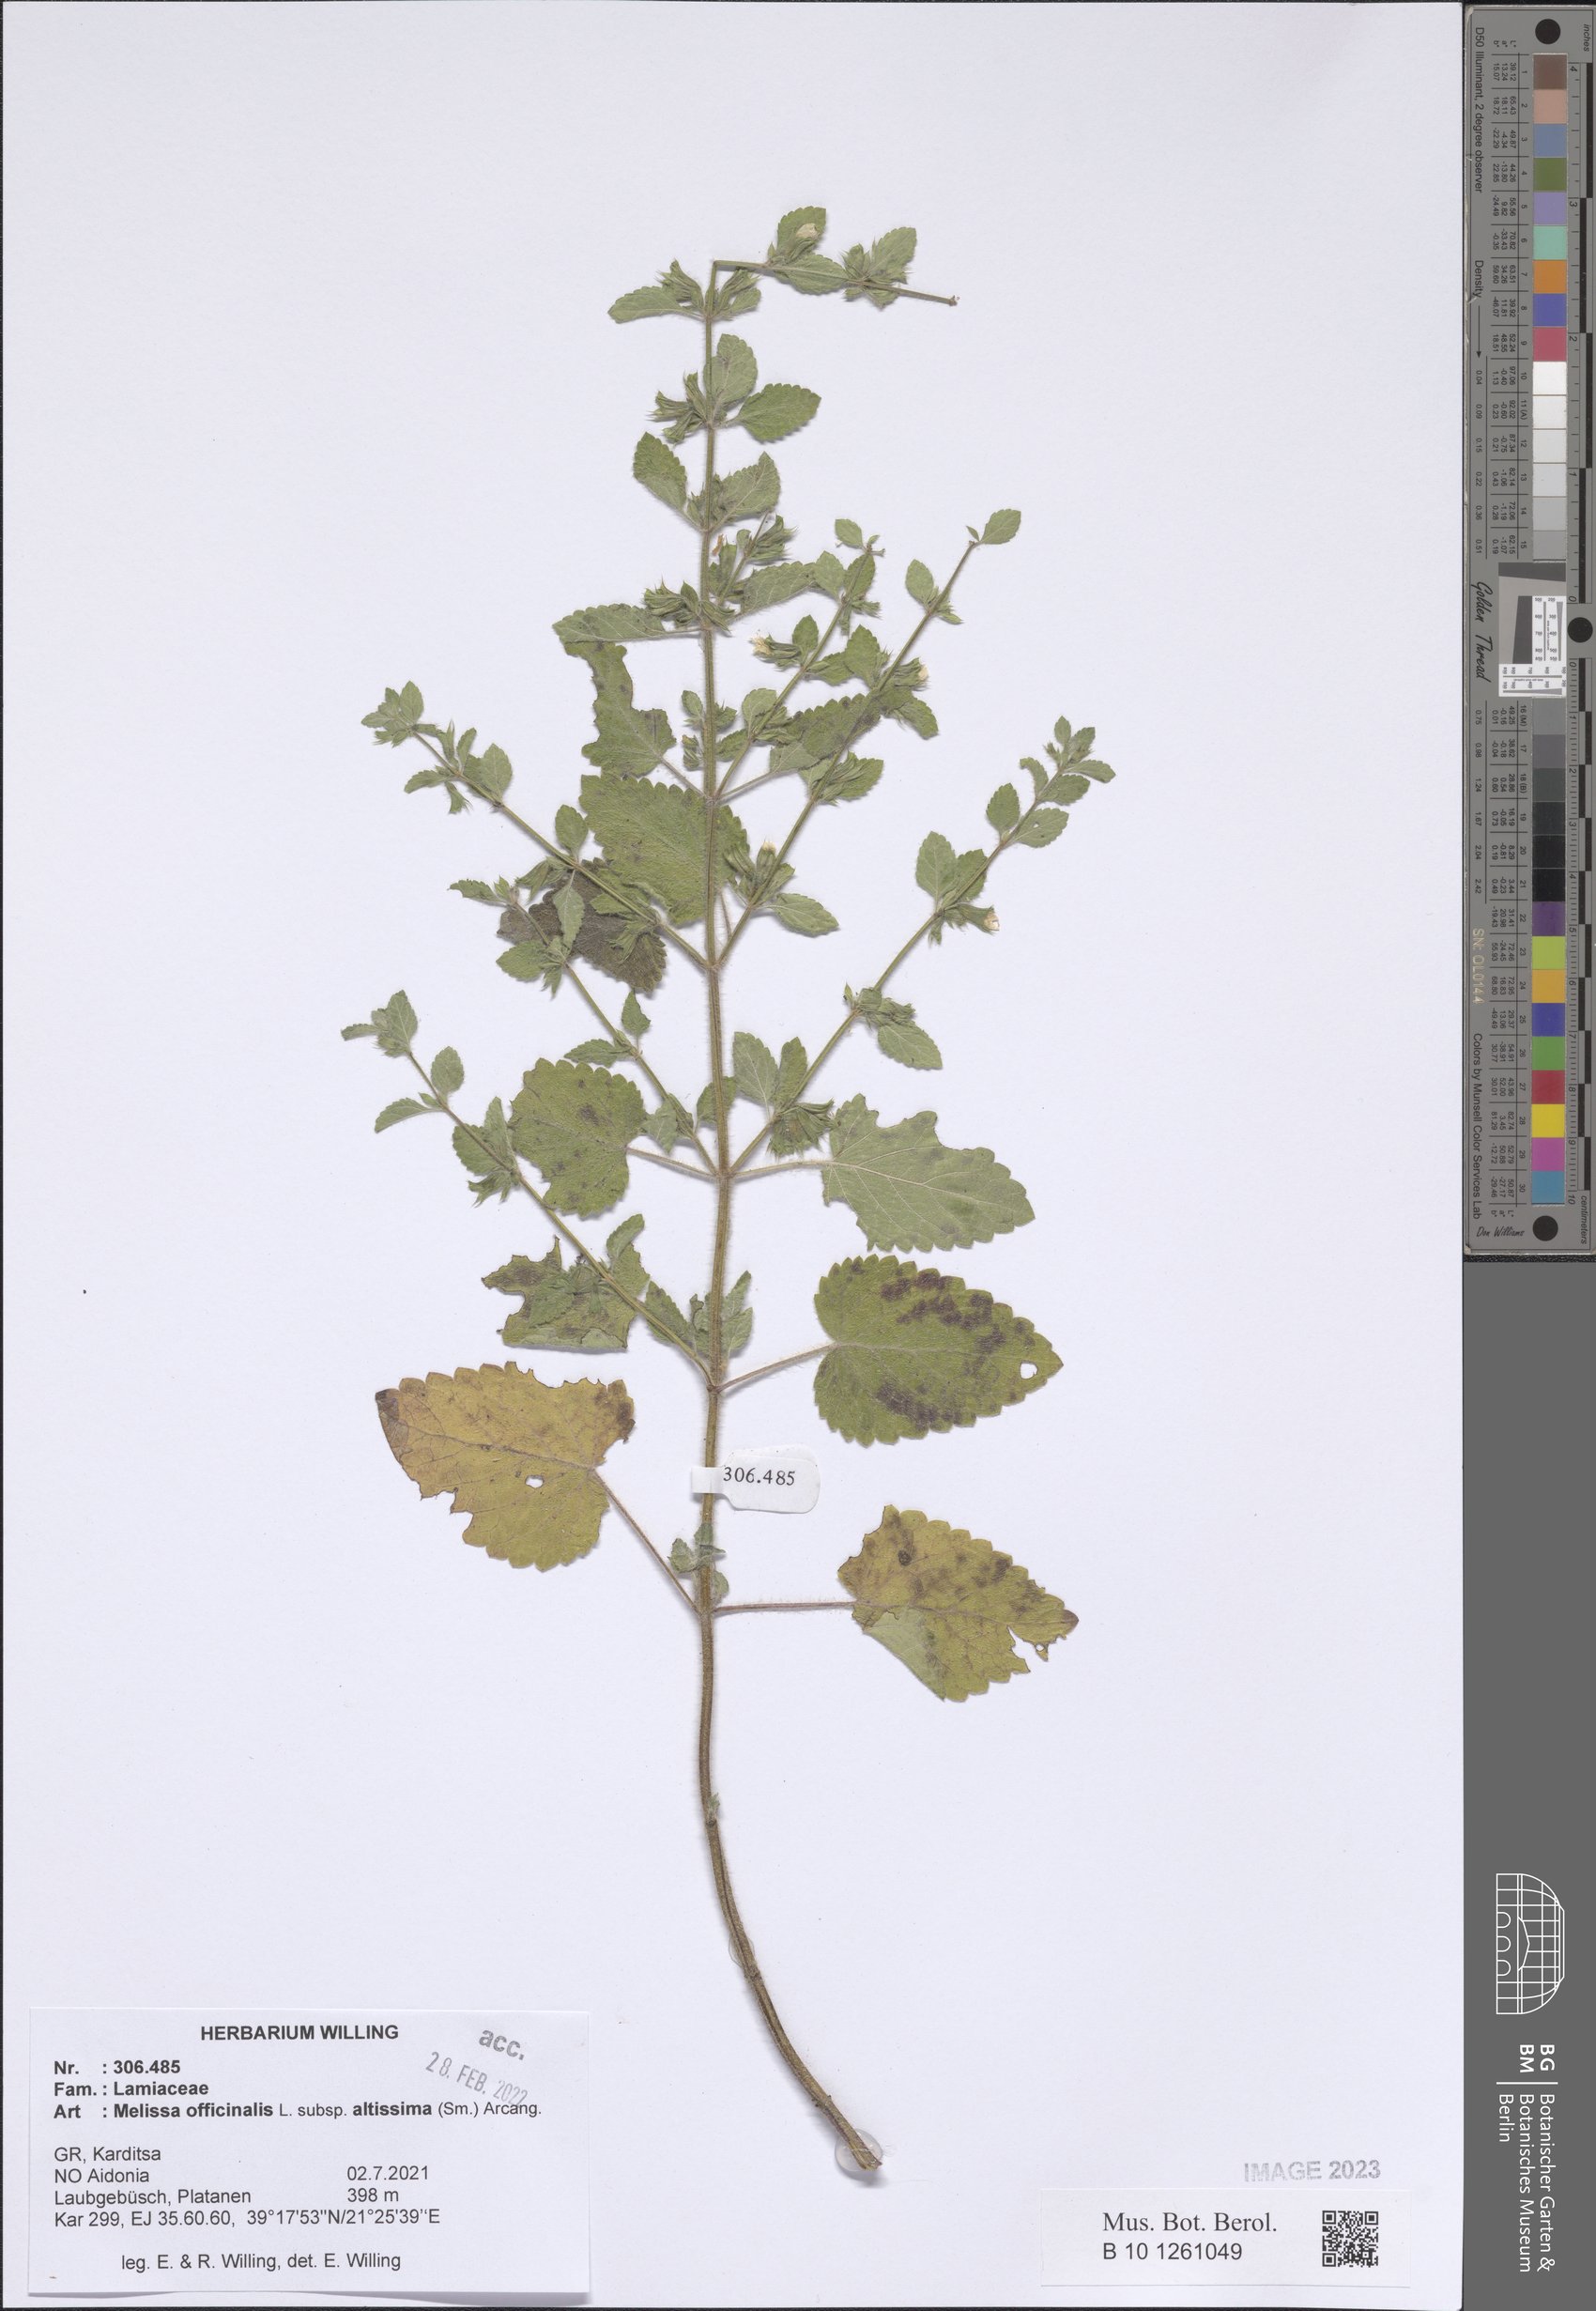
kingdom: Plantae
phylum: Tracheophyta
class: Magnoliopsida
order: Lamiales
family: Lamiaceae
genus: Melissa
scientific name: Melissa officinalis
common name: Balm
